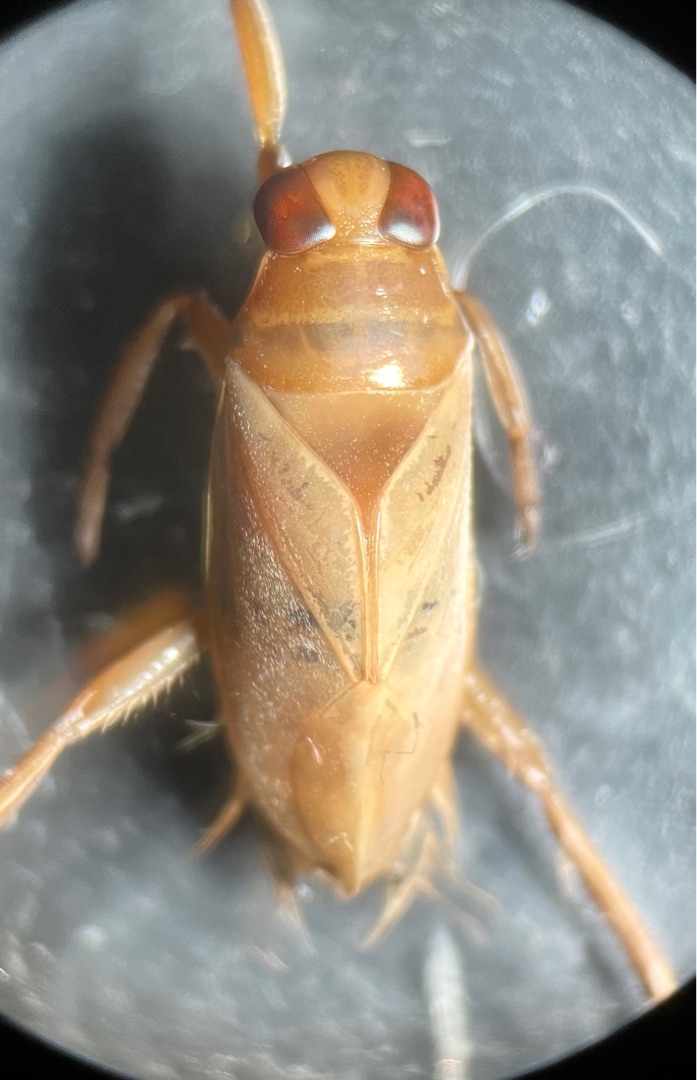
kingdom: Animalia
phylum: Arthropoda
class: Insecta
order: Hemiptera
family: Notonectidae
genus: Notonecta
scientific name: Notonecta reuteri
